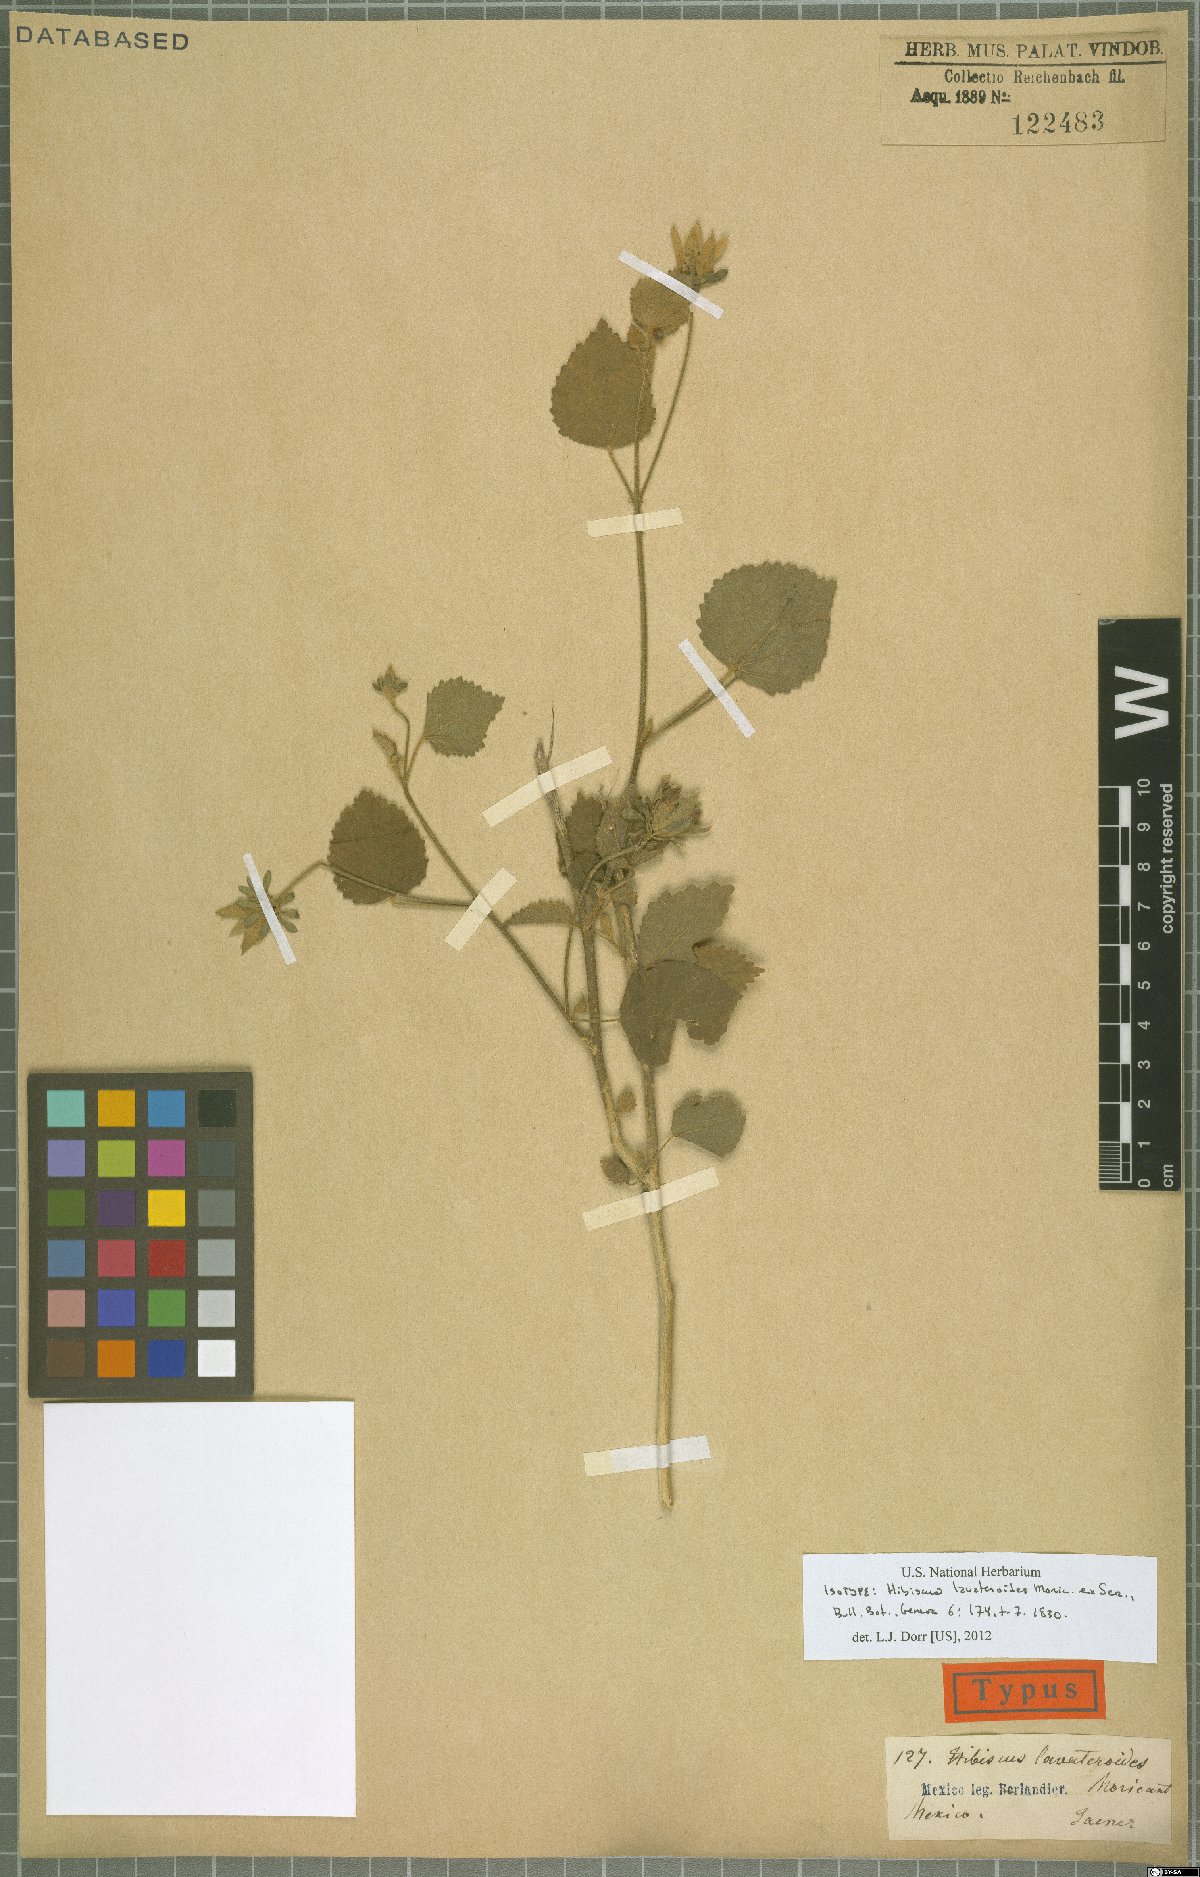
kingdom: Plantae
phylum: Tracheophyta
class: Magnoliopsida
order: Malvales
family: Malvaceae
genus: Hibiscus
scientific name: Hibiscus lavateroides
